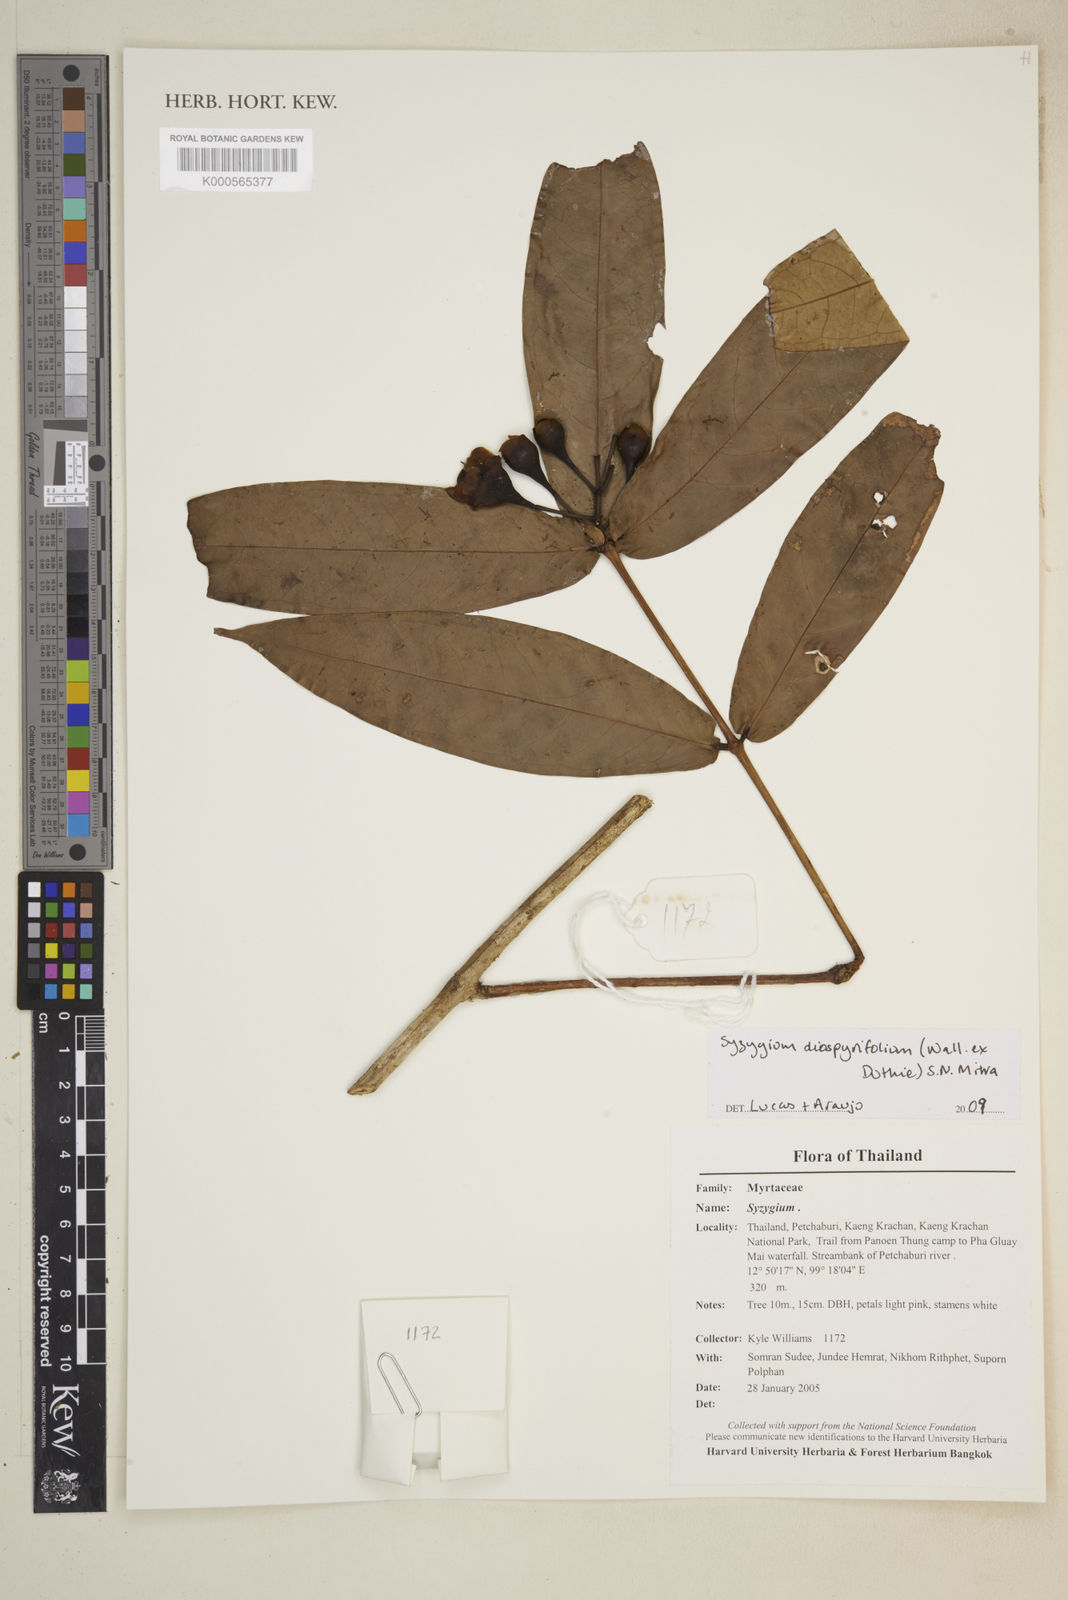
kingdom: Plantae
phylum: Tracheophyta
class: Magnoliopsida
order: Myrtales
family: Myrtaceae
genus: Syzygium
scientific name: Syzygium diospyrifolium
